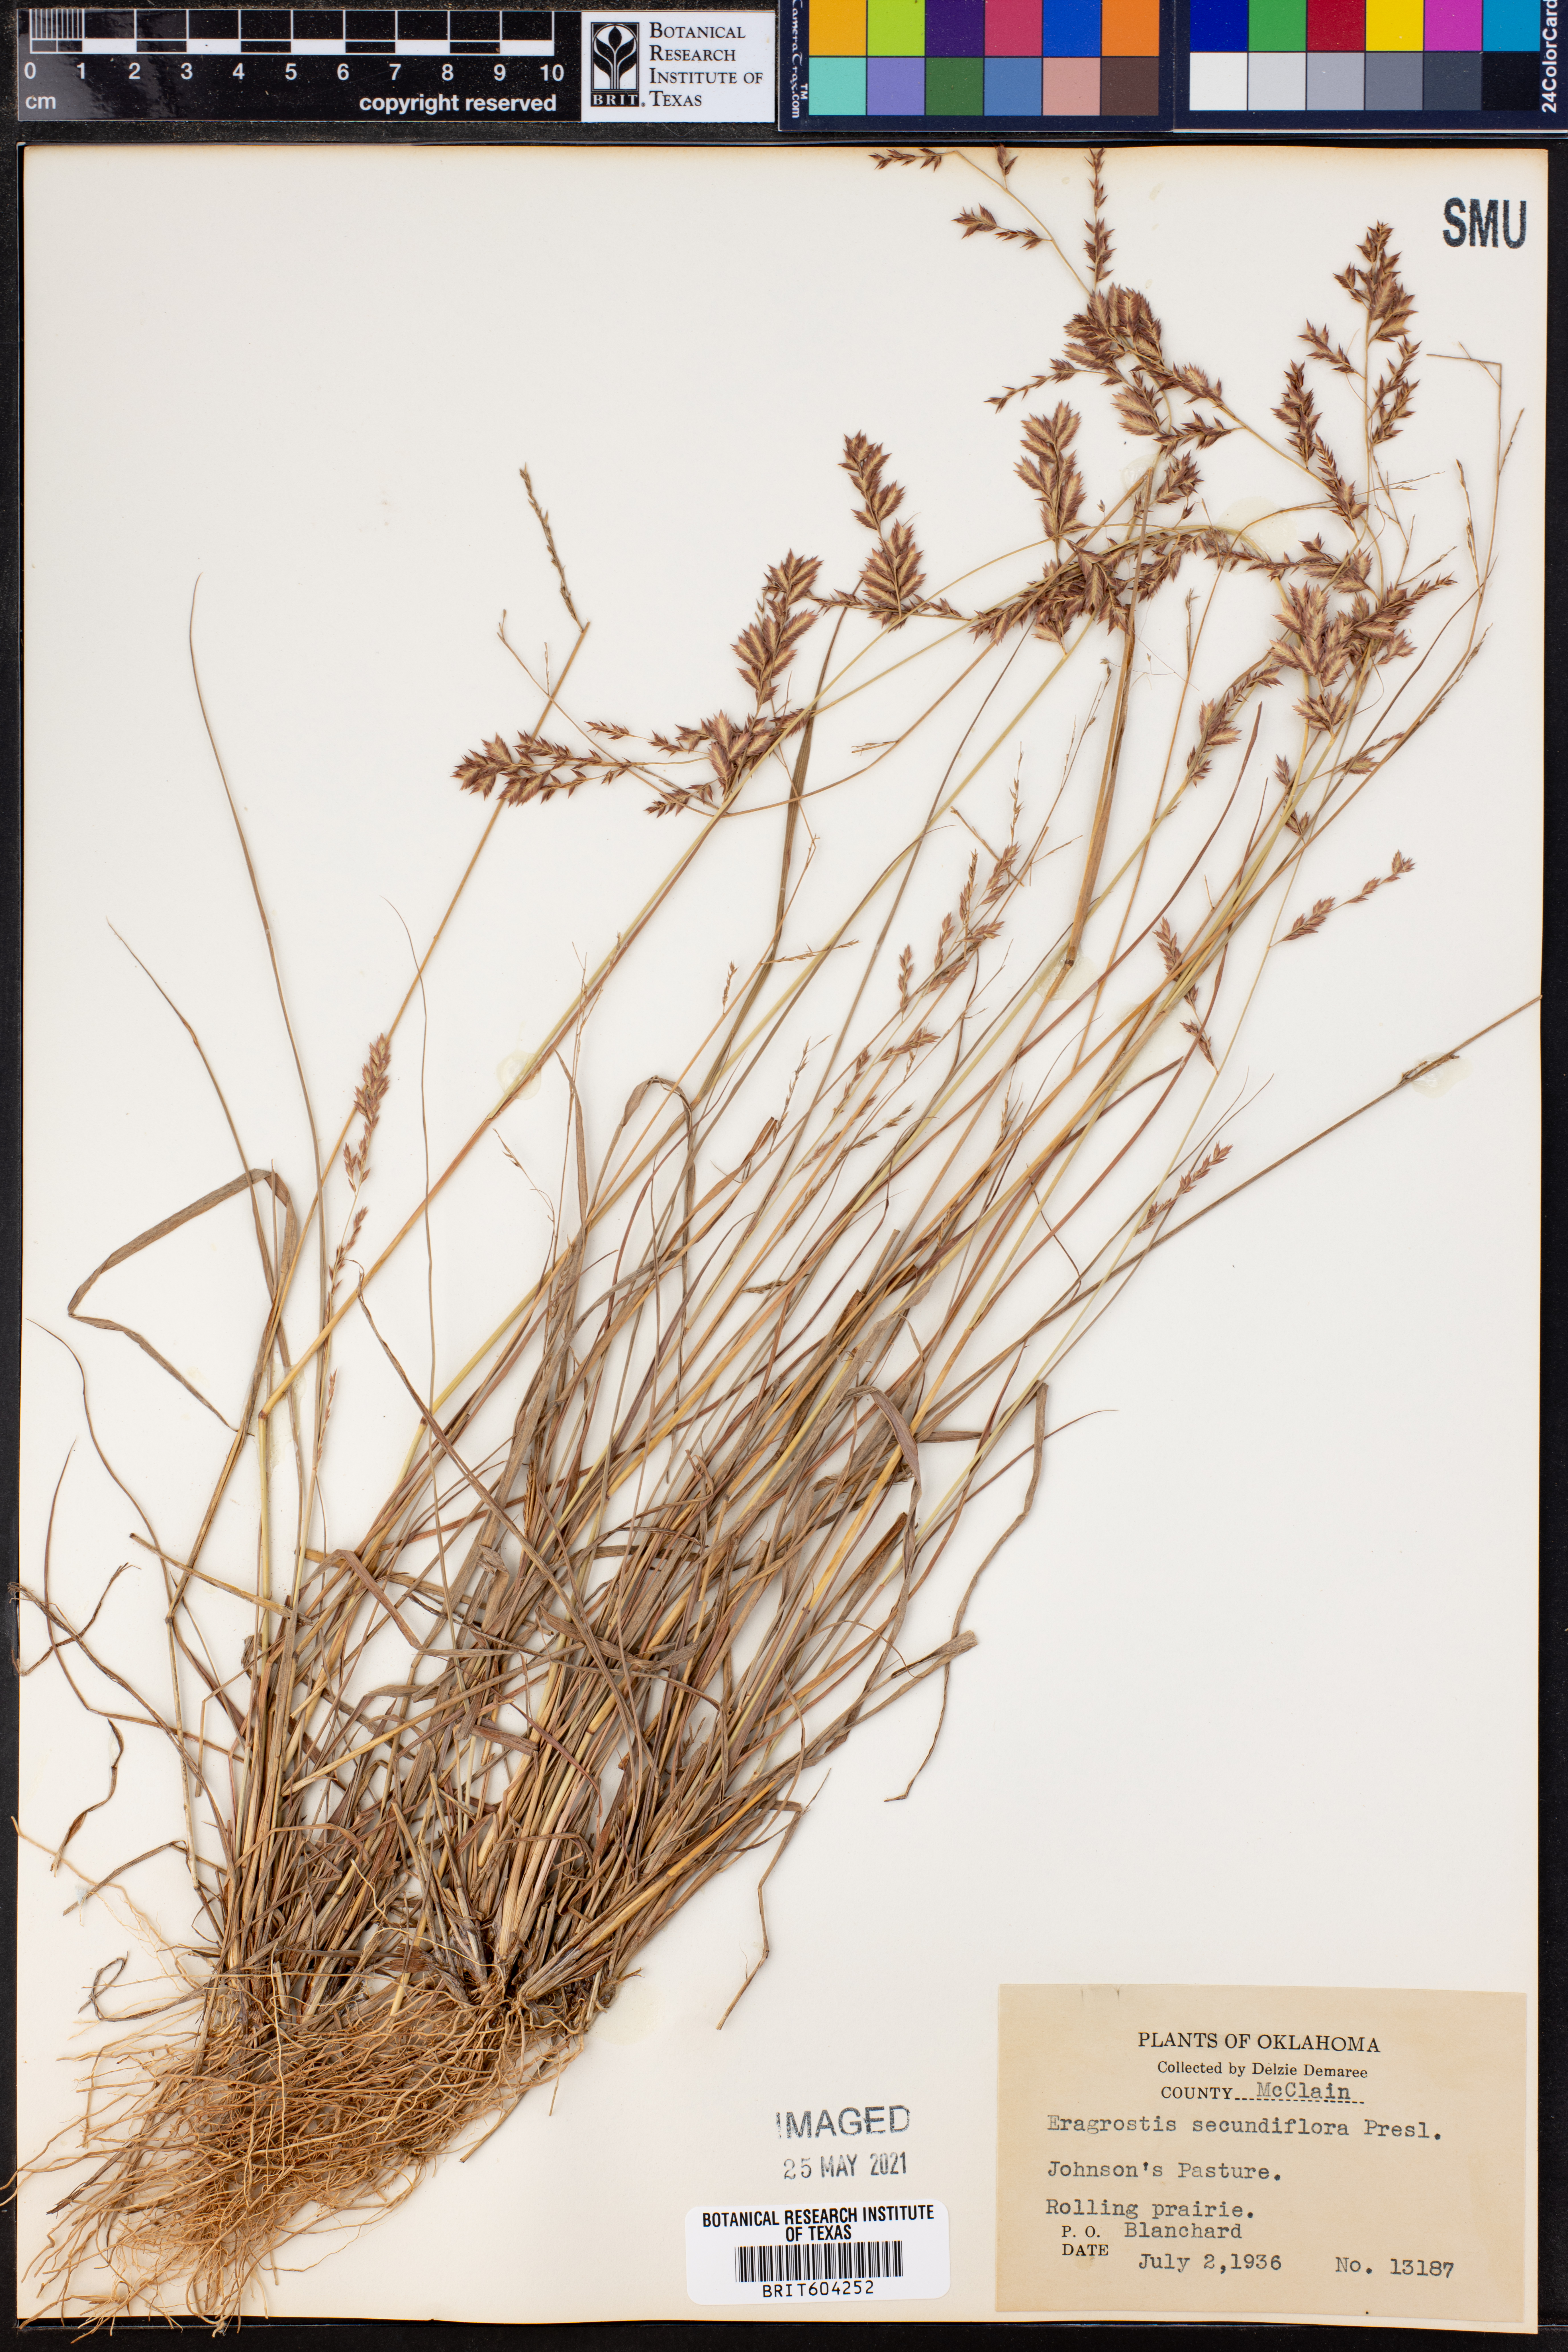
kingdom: Plantae
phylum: Tracheophyta
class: Liliopsida
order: Poales
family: Poaceae
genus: Eragrostis
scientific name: Eragrostis secundiflora
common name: Red love grass
